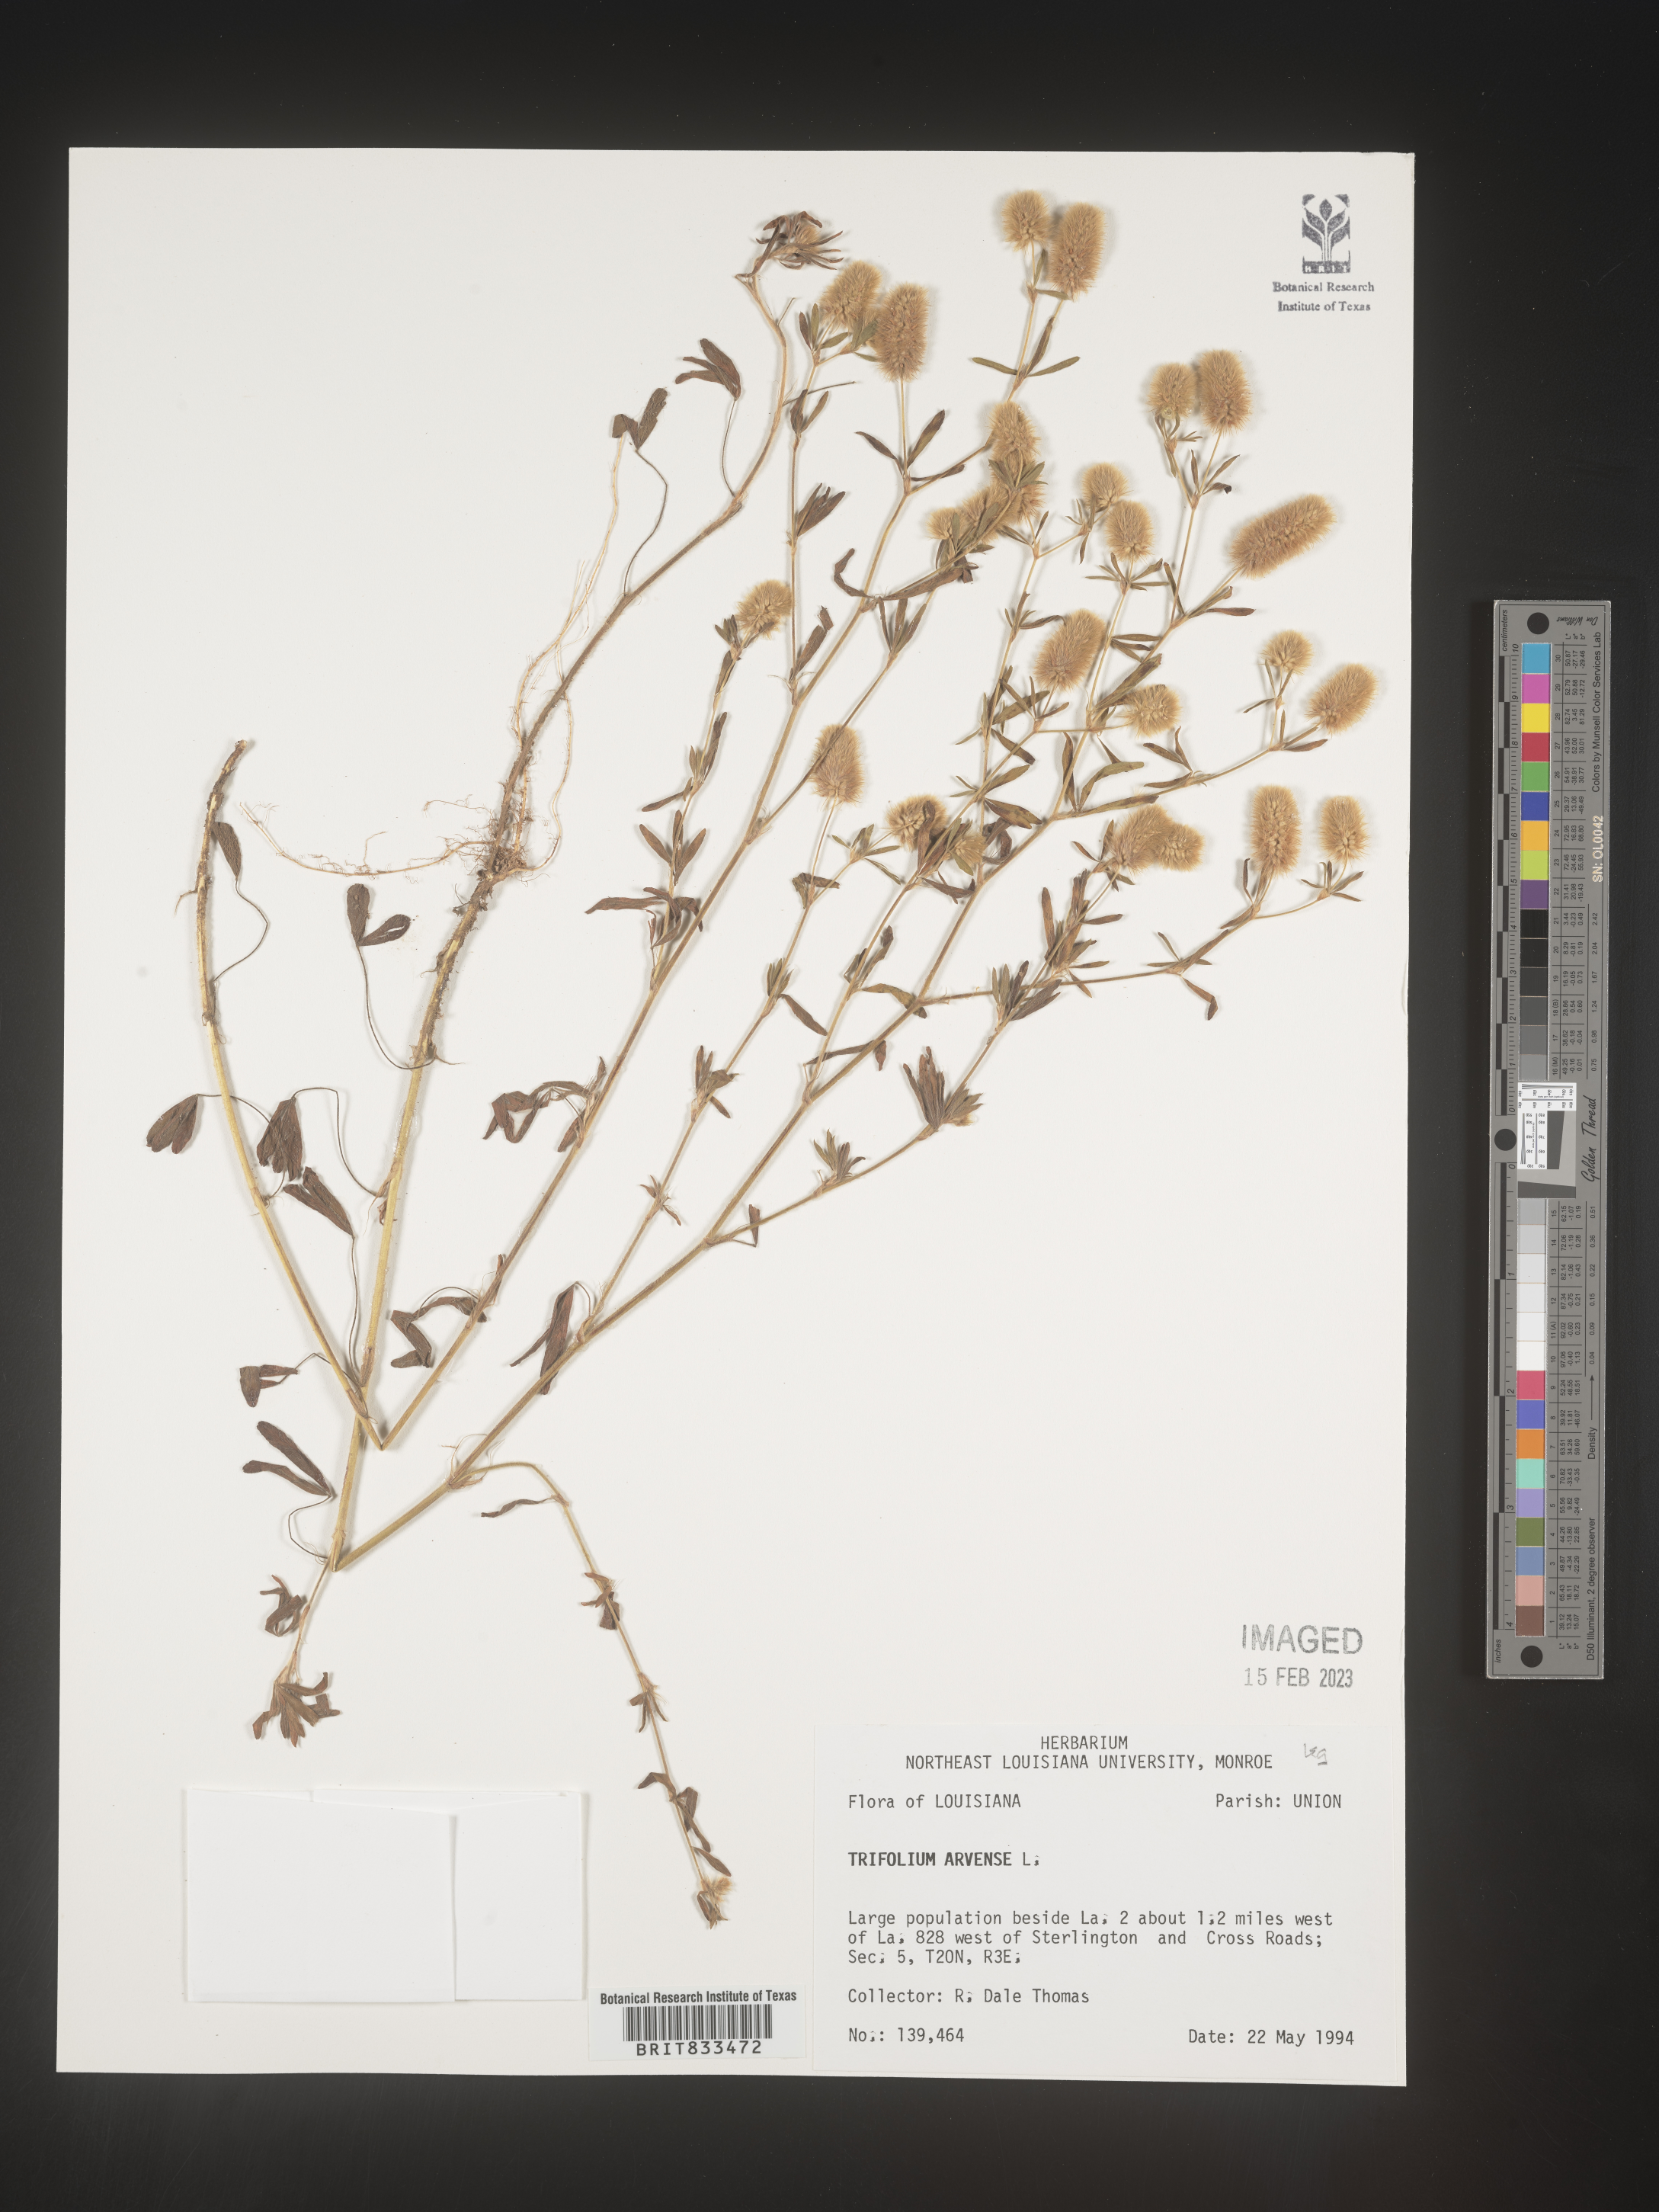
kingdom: Plantae
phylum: Tracheophyta
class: Magnoliopsida
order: Fabales
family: Fabaceae
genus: Trifolium
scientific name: Trifolium arvense
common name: Hare's-foot clover
